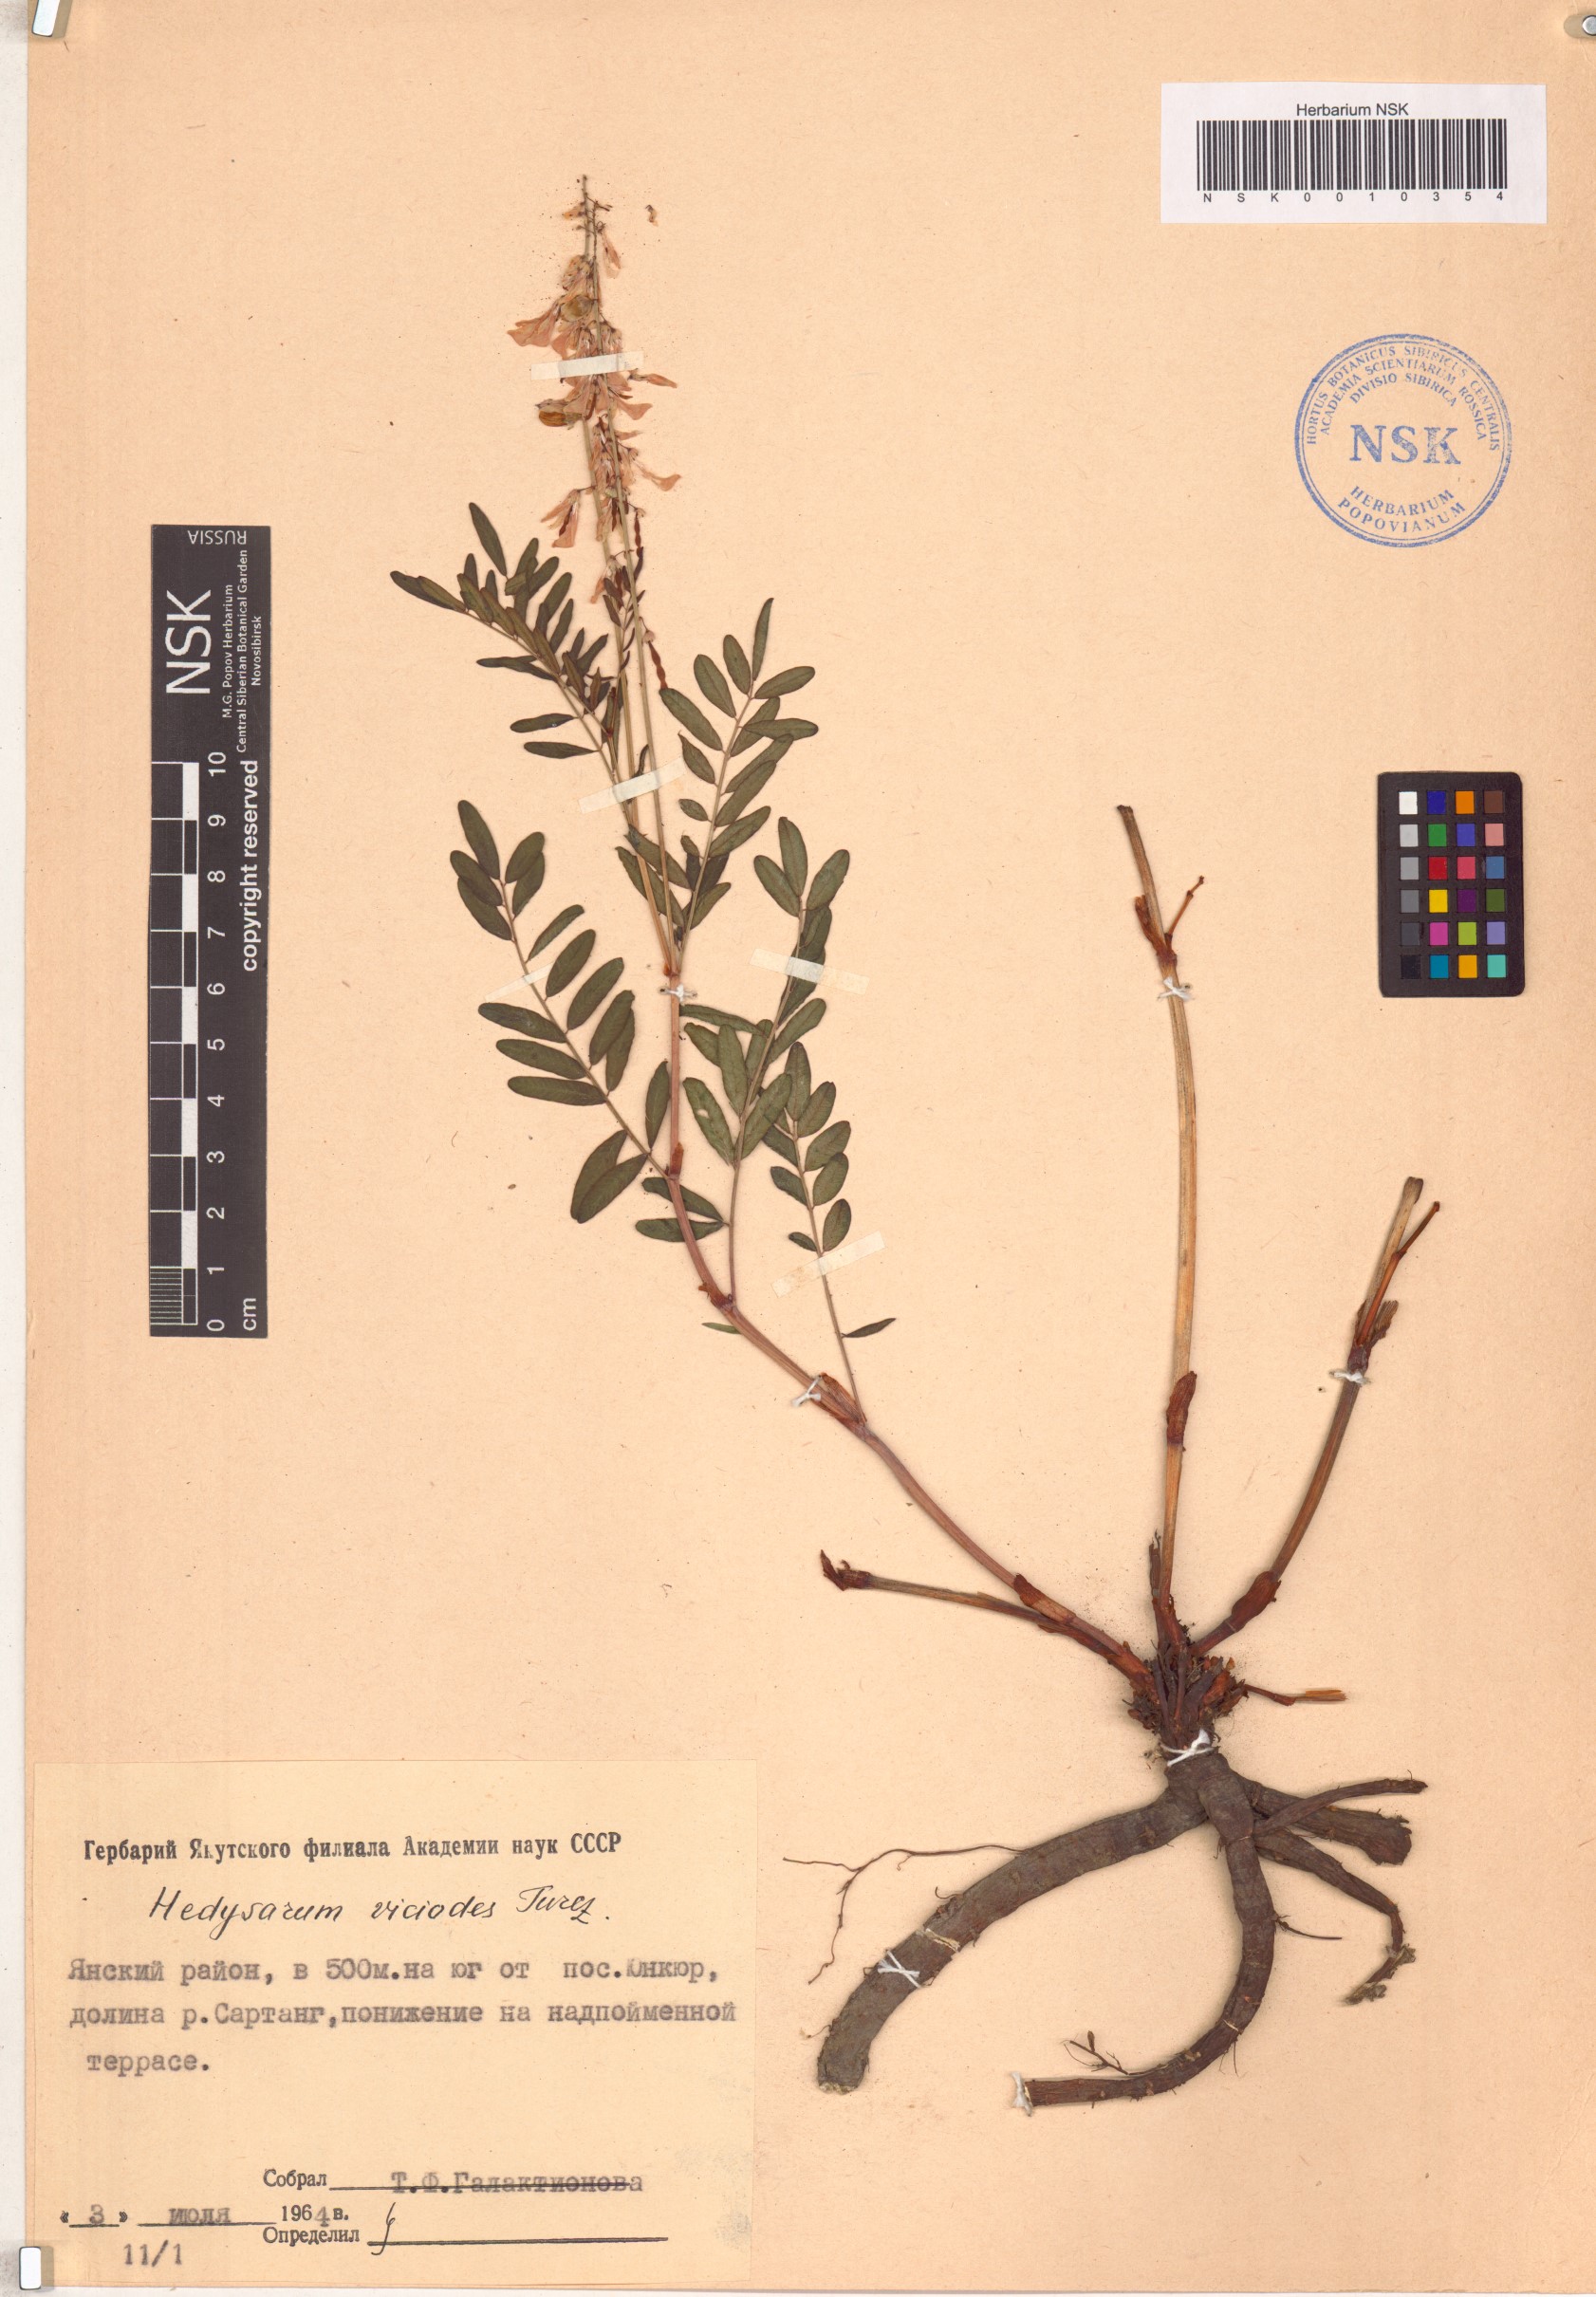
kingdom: Plantae
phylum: Tracheophyta
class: Magnoliopsida
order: Fabales
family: Fabaceae
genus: Hedysarum
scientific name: Hedysarum vicioides
